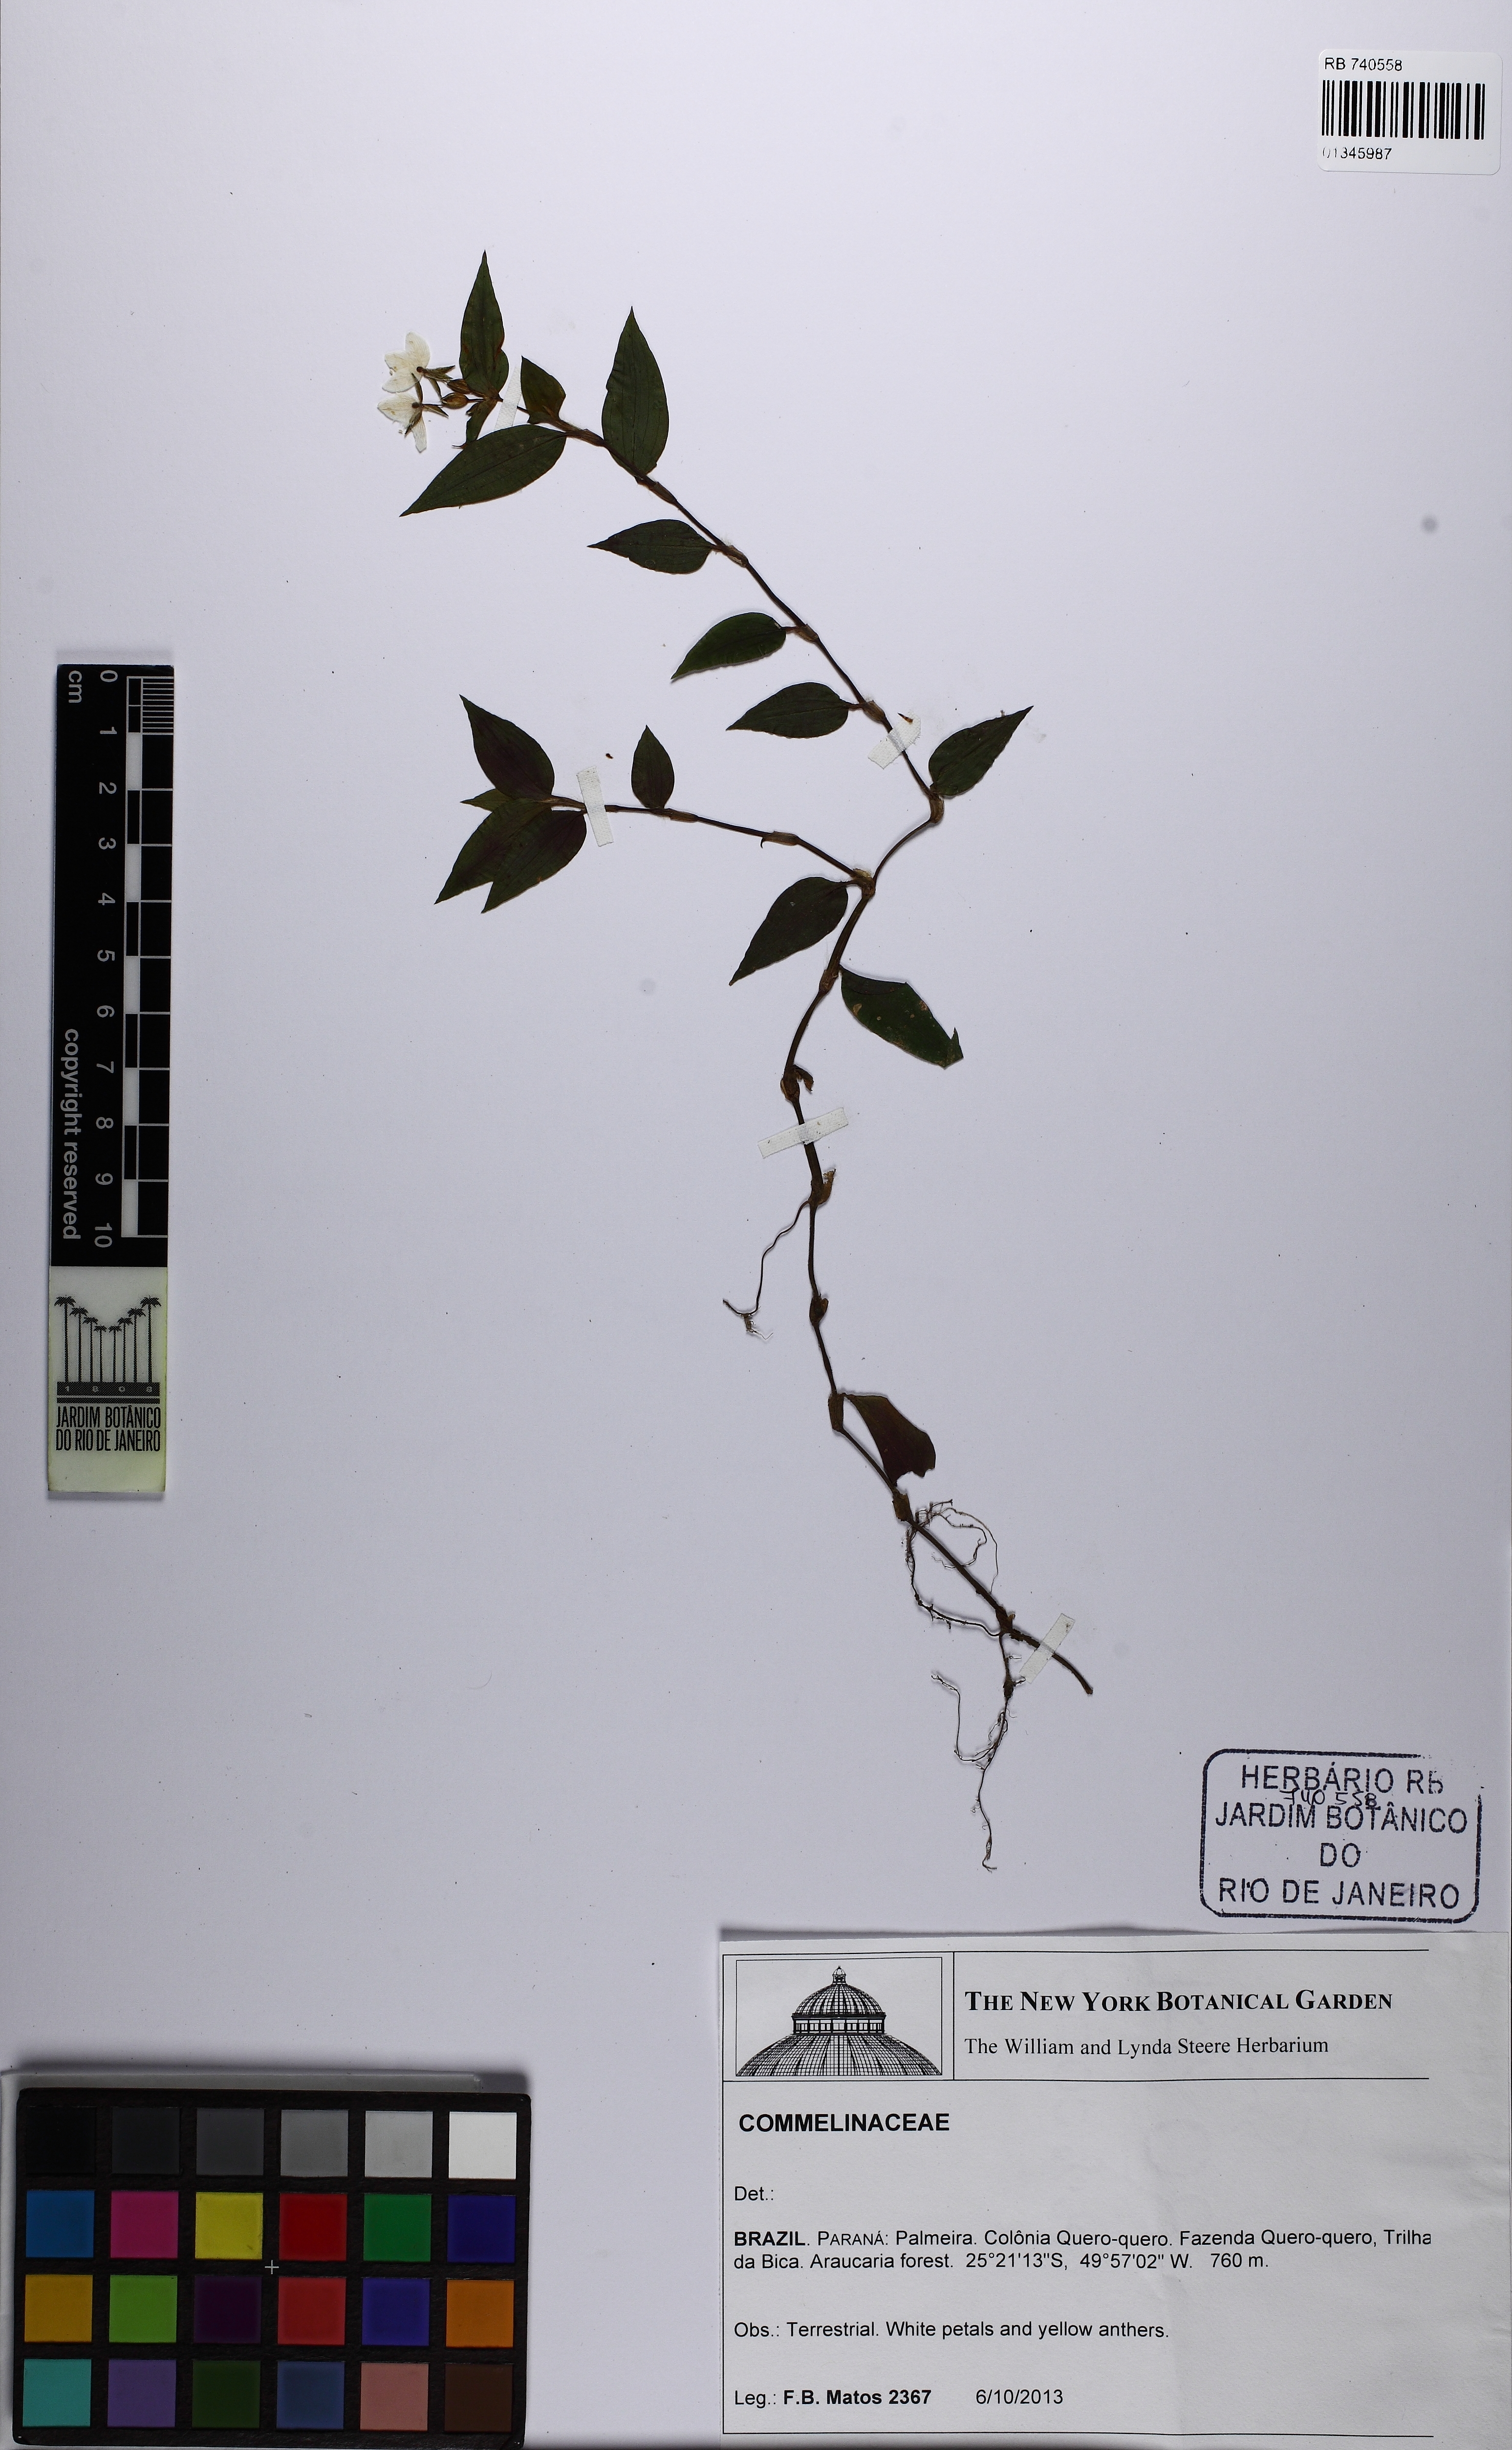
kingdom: Plantae
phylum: Tracheophyta
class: Liliopsida
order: Commelinales
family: Commelinaceae
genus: Tradescantia
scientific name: Tradescantia mundula
